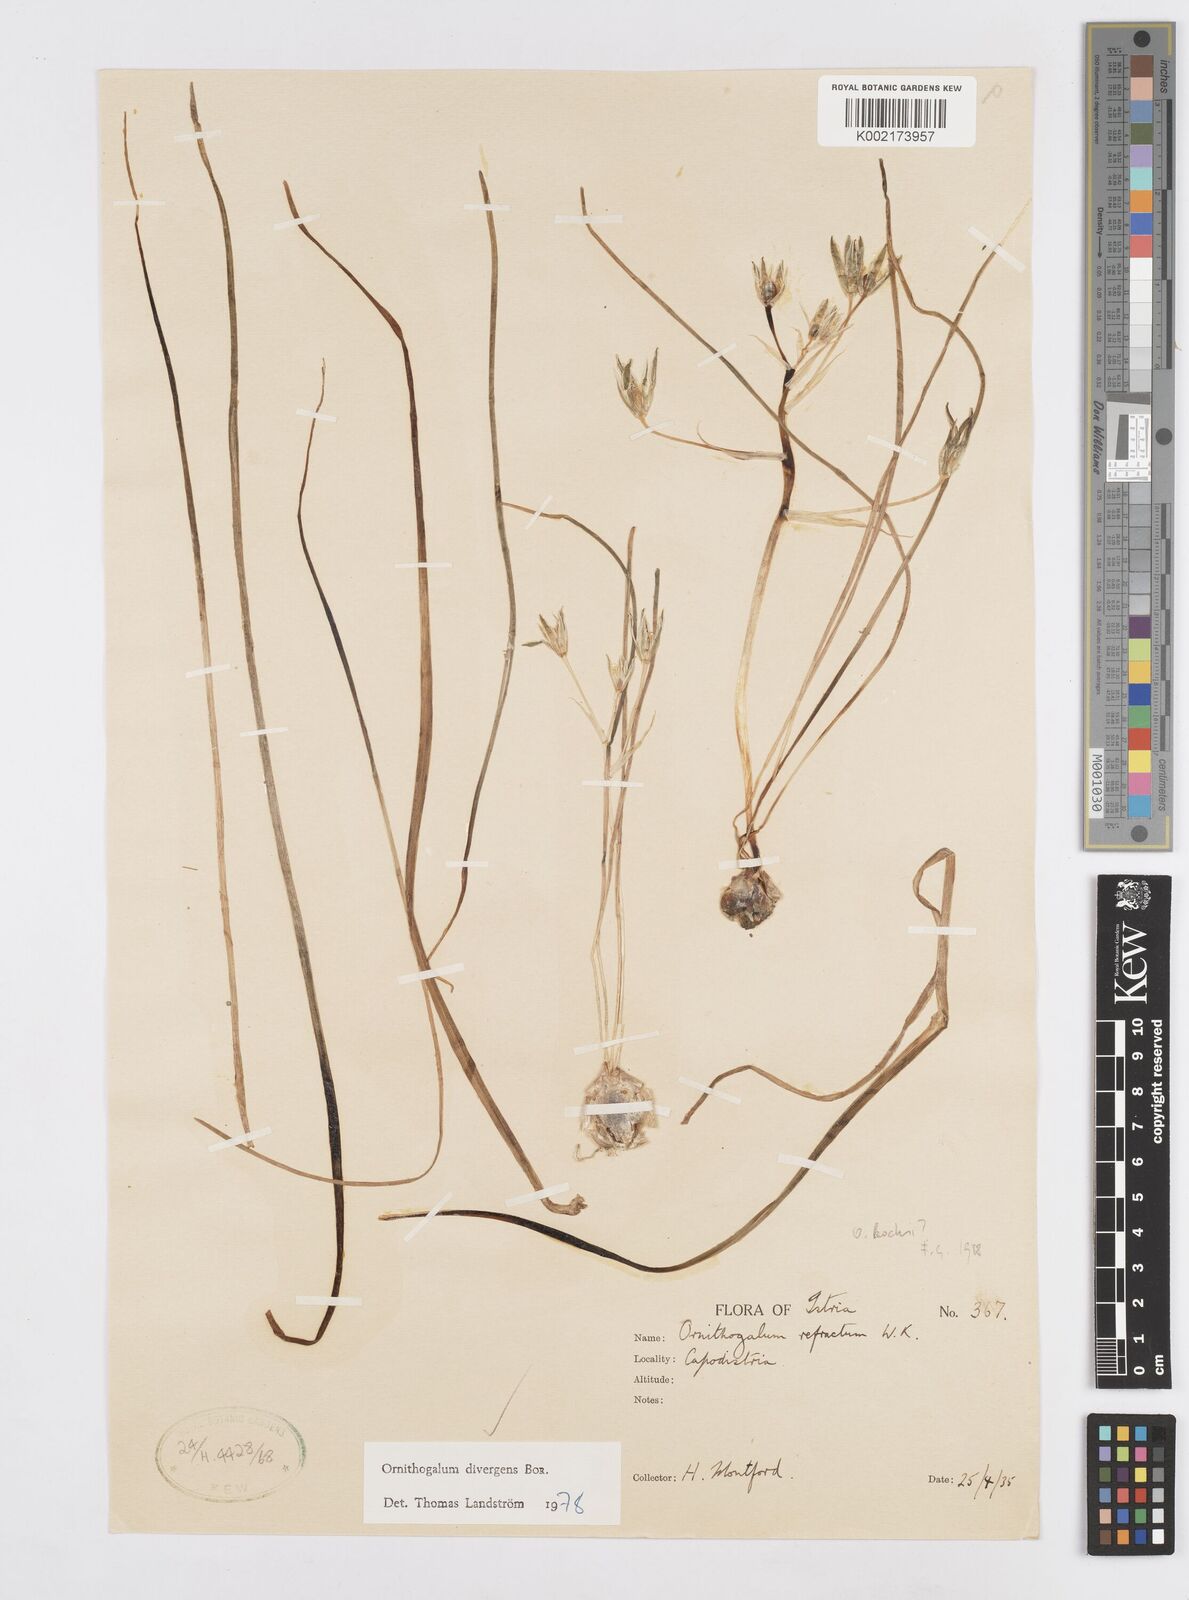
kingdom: Plantae
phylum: Tracheophyta
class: Liliopsida
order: Asparagales
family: Asparagaceae
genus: Ornithogalum
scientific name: Ornithogalum divergens
